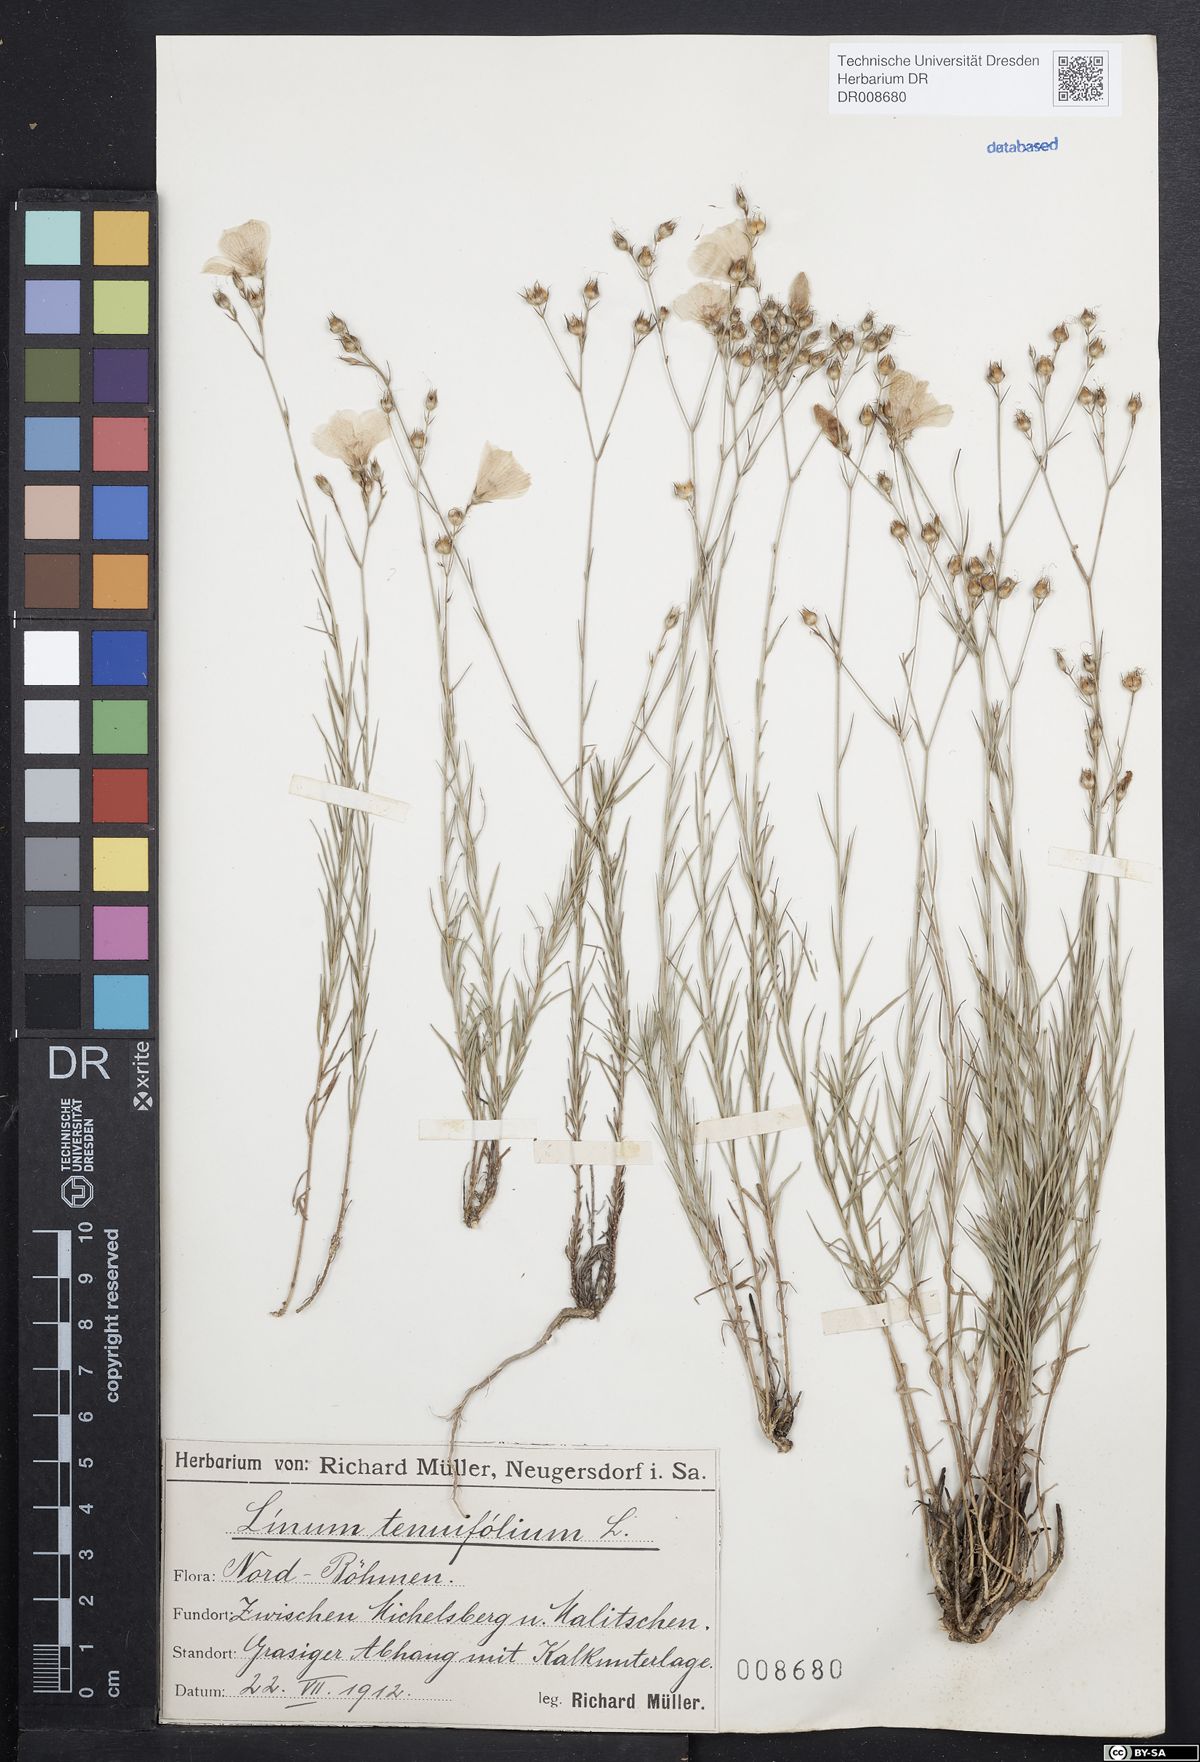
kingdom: Plantae
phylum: Tracheophyta
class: Magnoliopsida
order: Malpighiales
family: Linaceae
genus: Linum
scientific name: Linum tenuifolium
